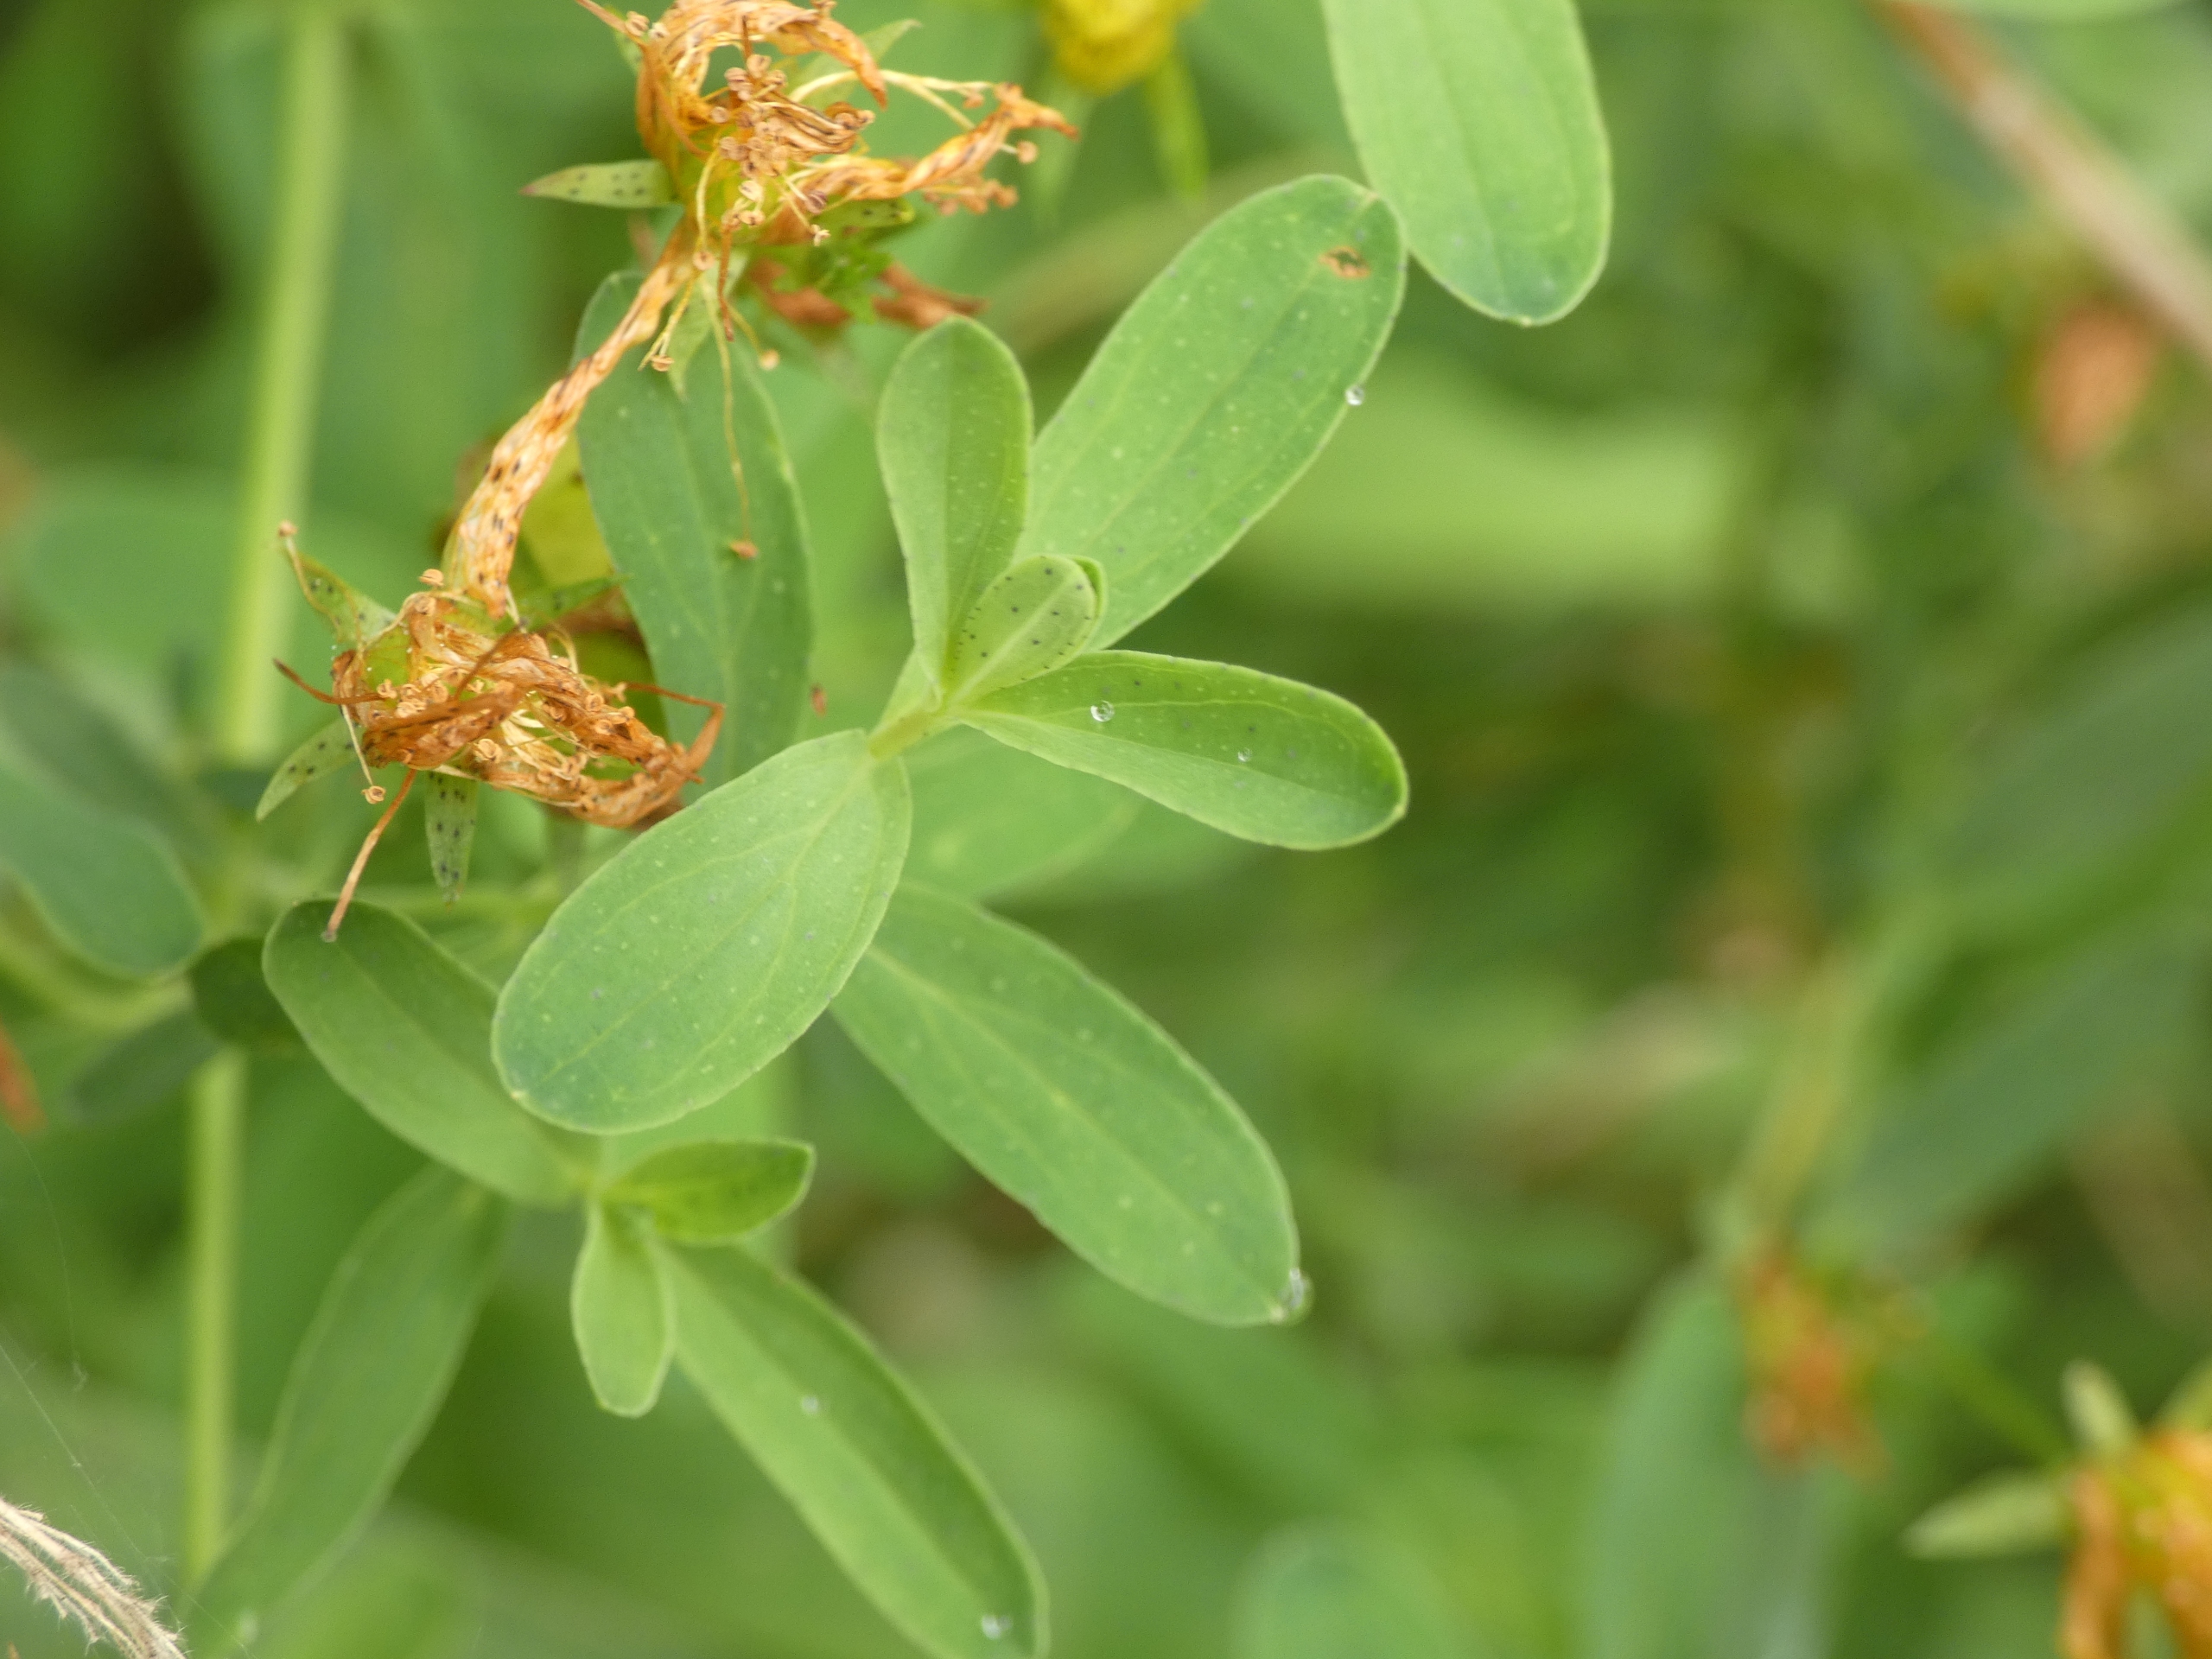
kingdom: Plantae
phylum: Tracheophyta
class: Magnoliopsida
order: Malpighiales
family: Hypericaceae
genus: Hypericum
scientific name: Hypericum perforatum
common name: Prikbladet perikon
